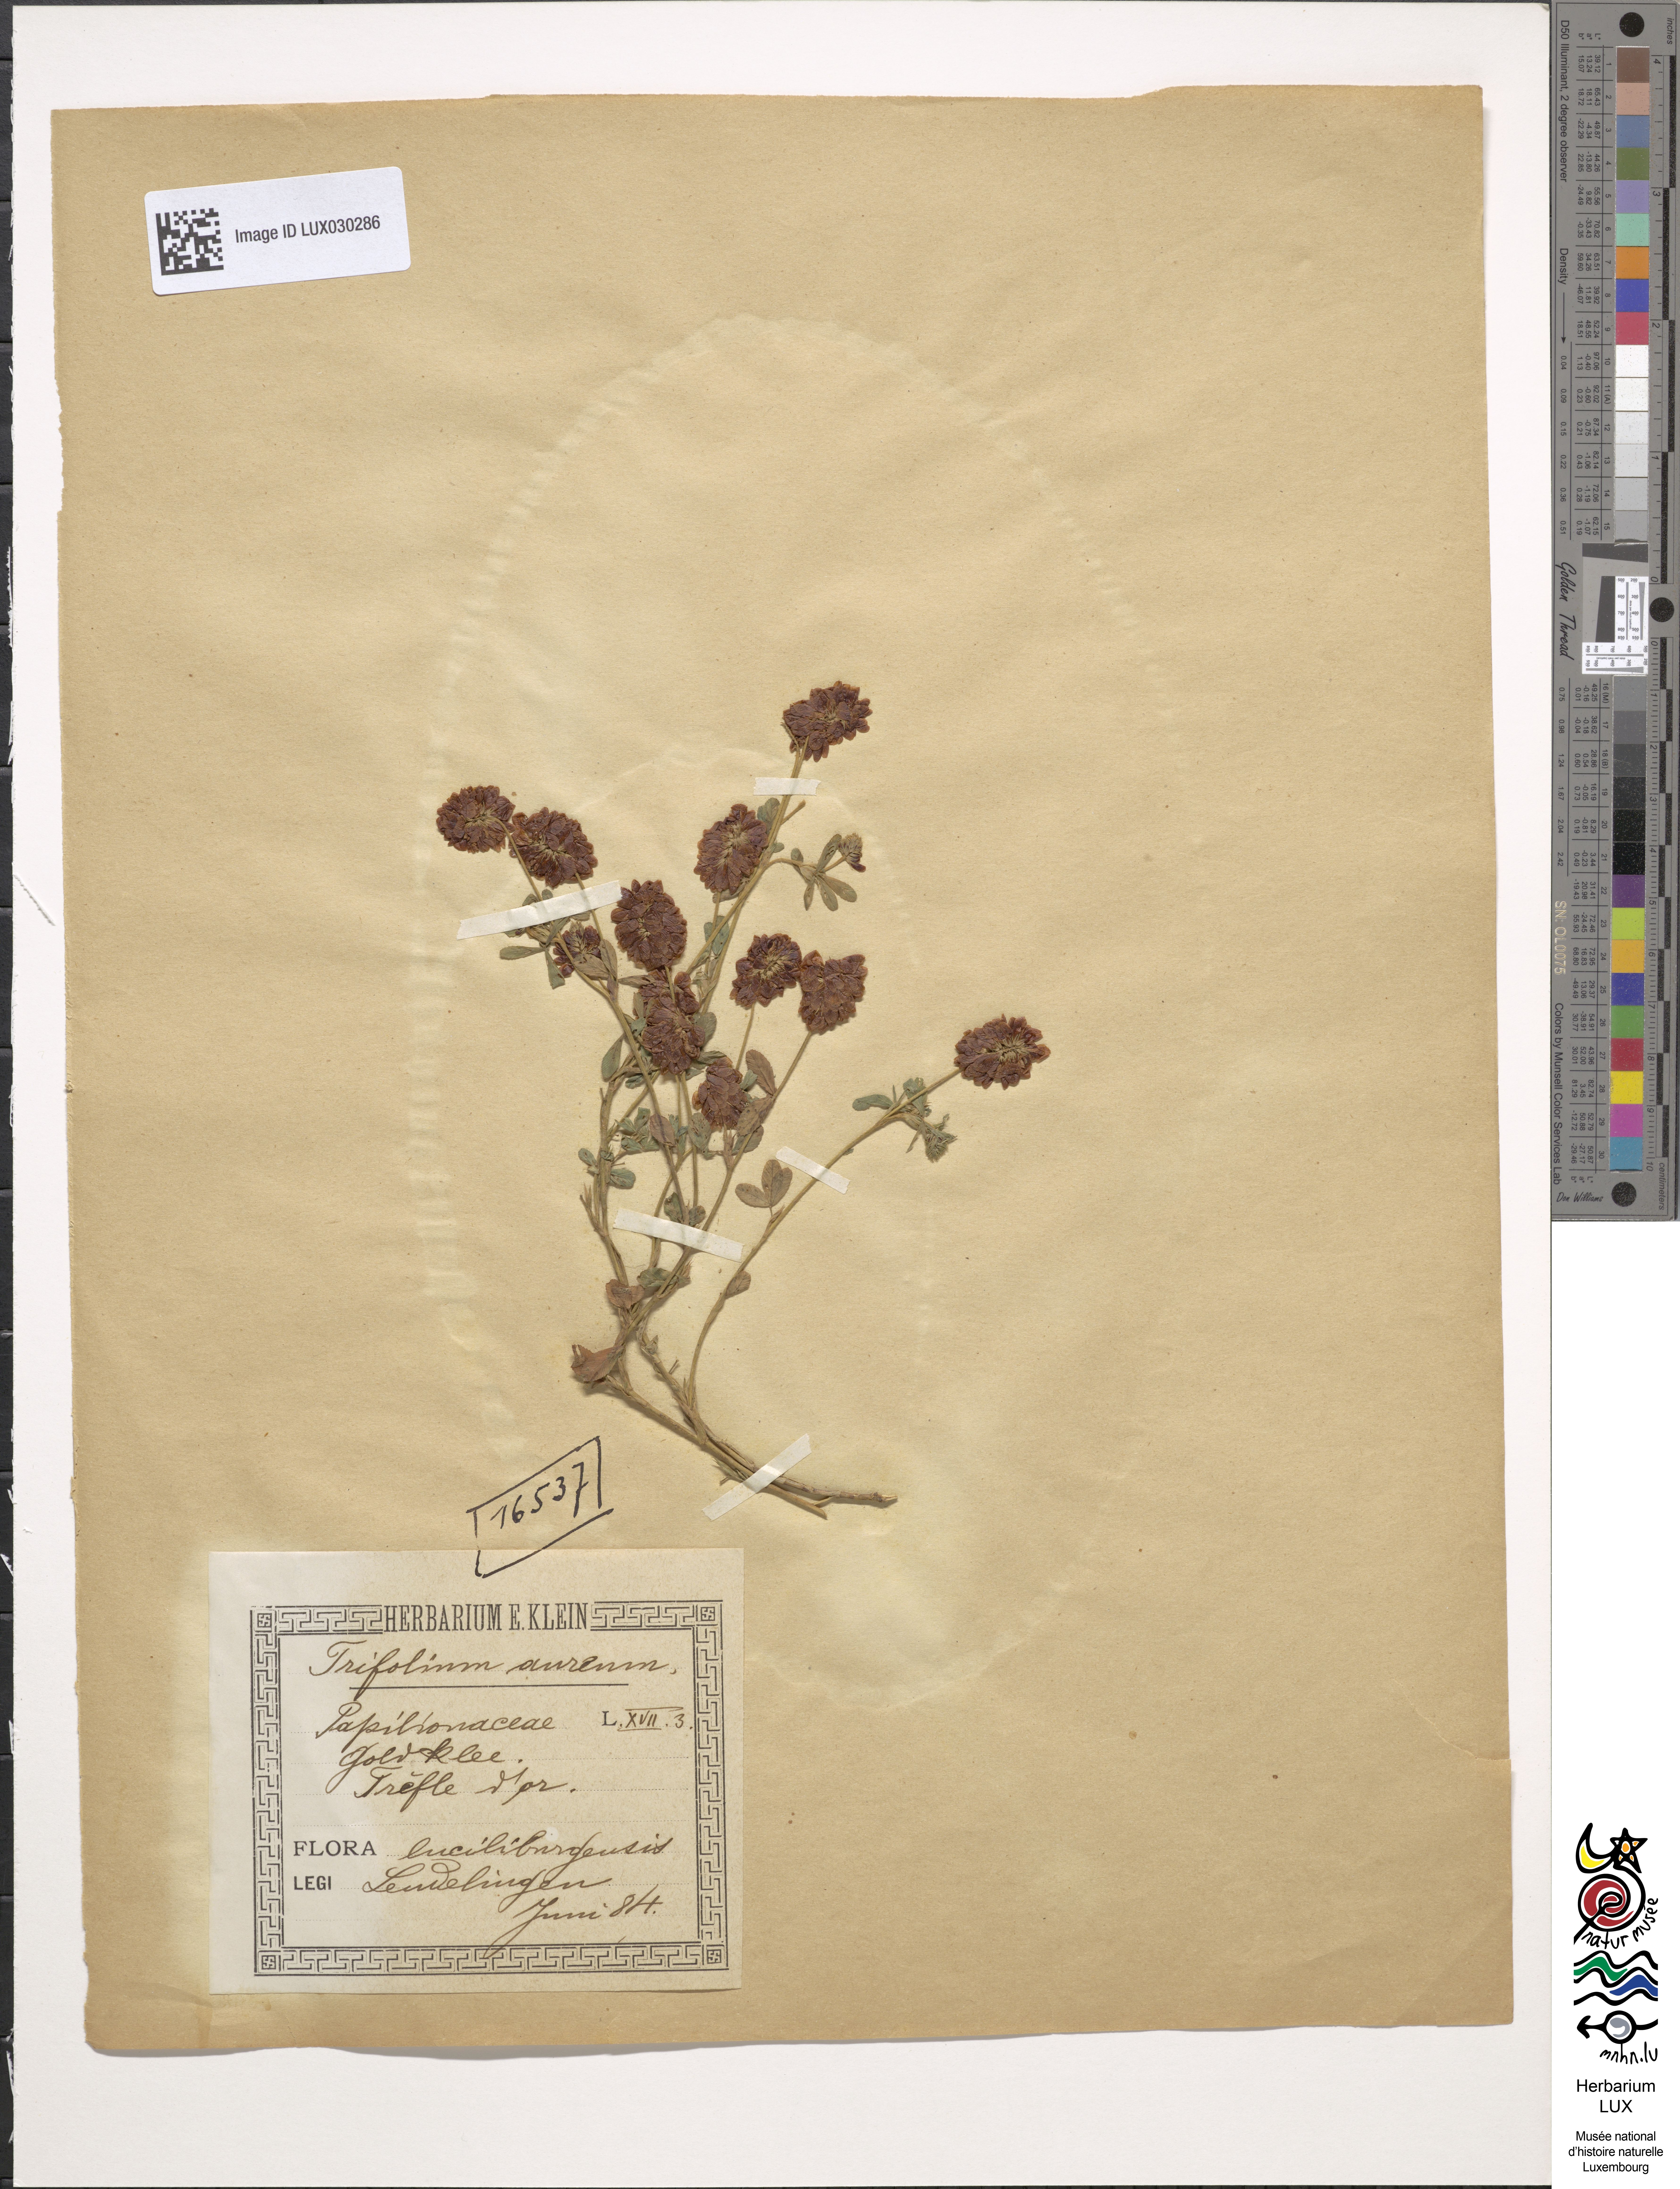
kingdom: Plantae
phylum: Tracheophyta
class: Magnoliopsida
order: Fabales
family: Fabaceae
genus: Trifolium
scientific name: Trifolium aureum
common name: Golden clover
